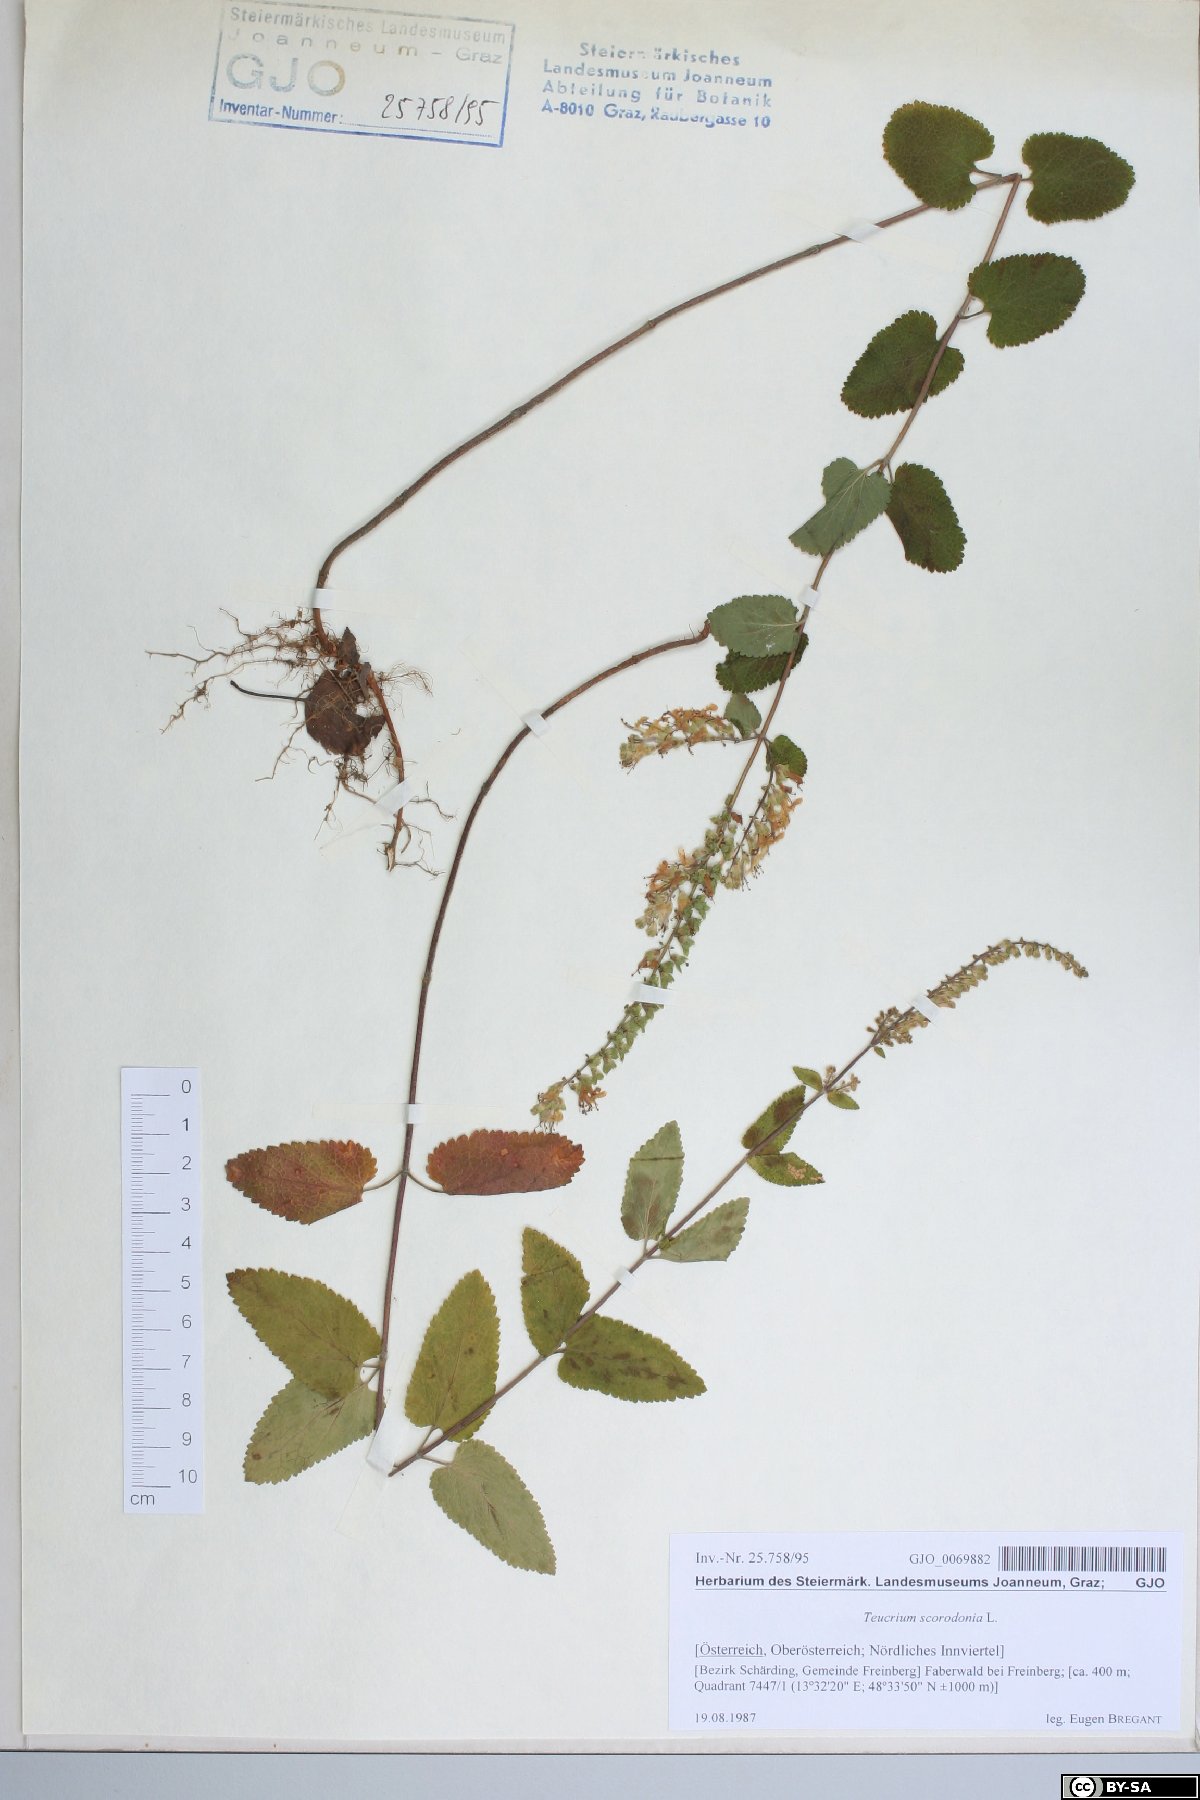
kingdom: Plantae
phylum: Tracheophyta
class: Magnoliopsida
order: Lamiales
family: Lamiaceae
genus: Teucrium
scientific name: Teucrium scorodonia
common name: Woodland germander
